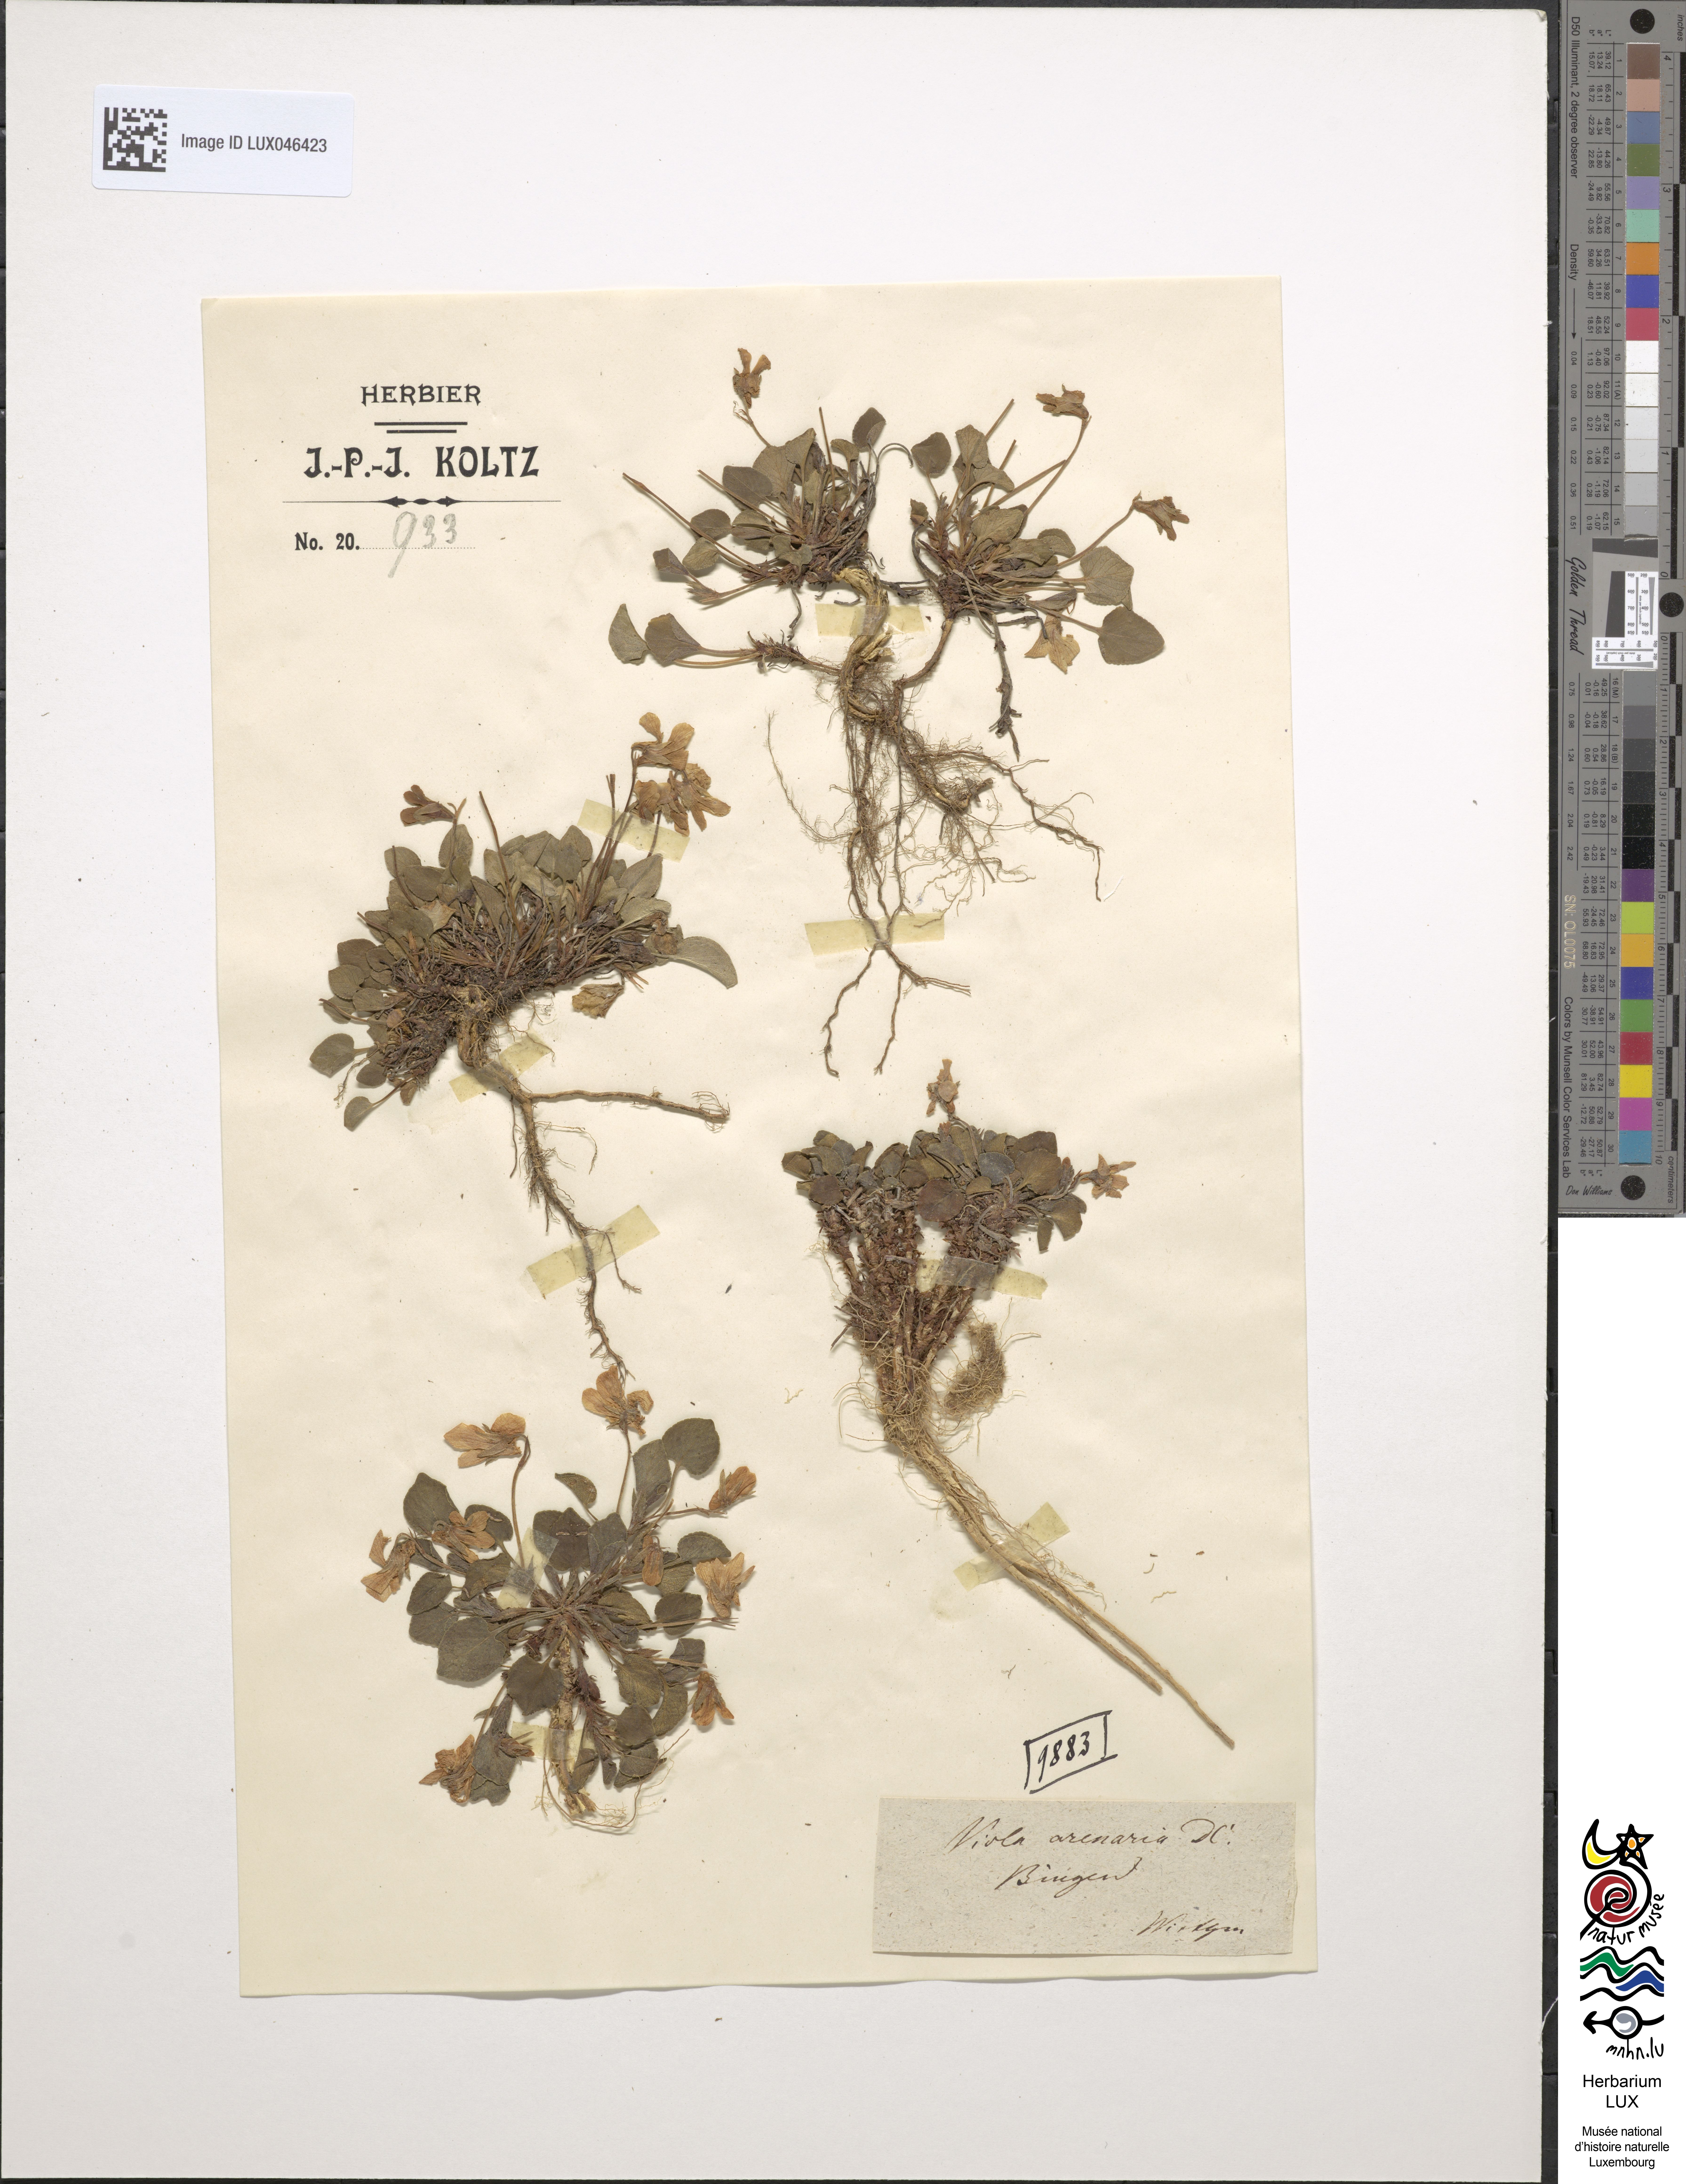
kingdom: Plantae
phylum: Tracheophyta
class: Magnoliopsida
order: Malpighiales
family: Violaceae
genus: Viola
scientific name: Viola rupestris
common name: Teesdale violet
